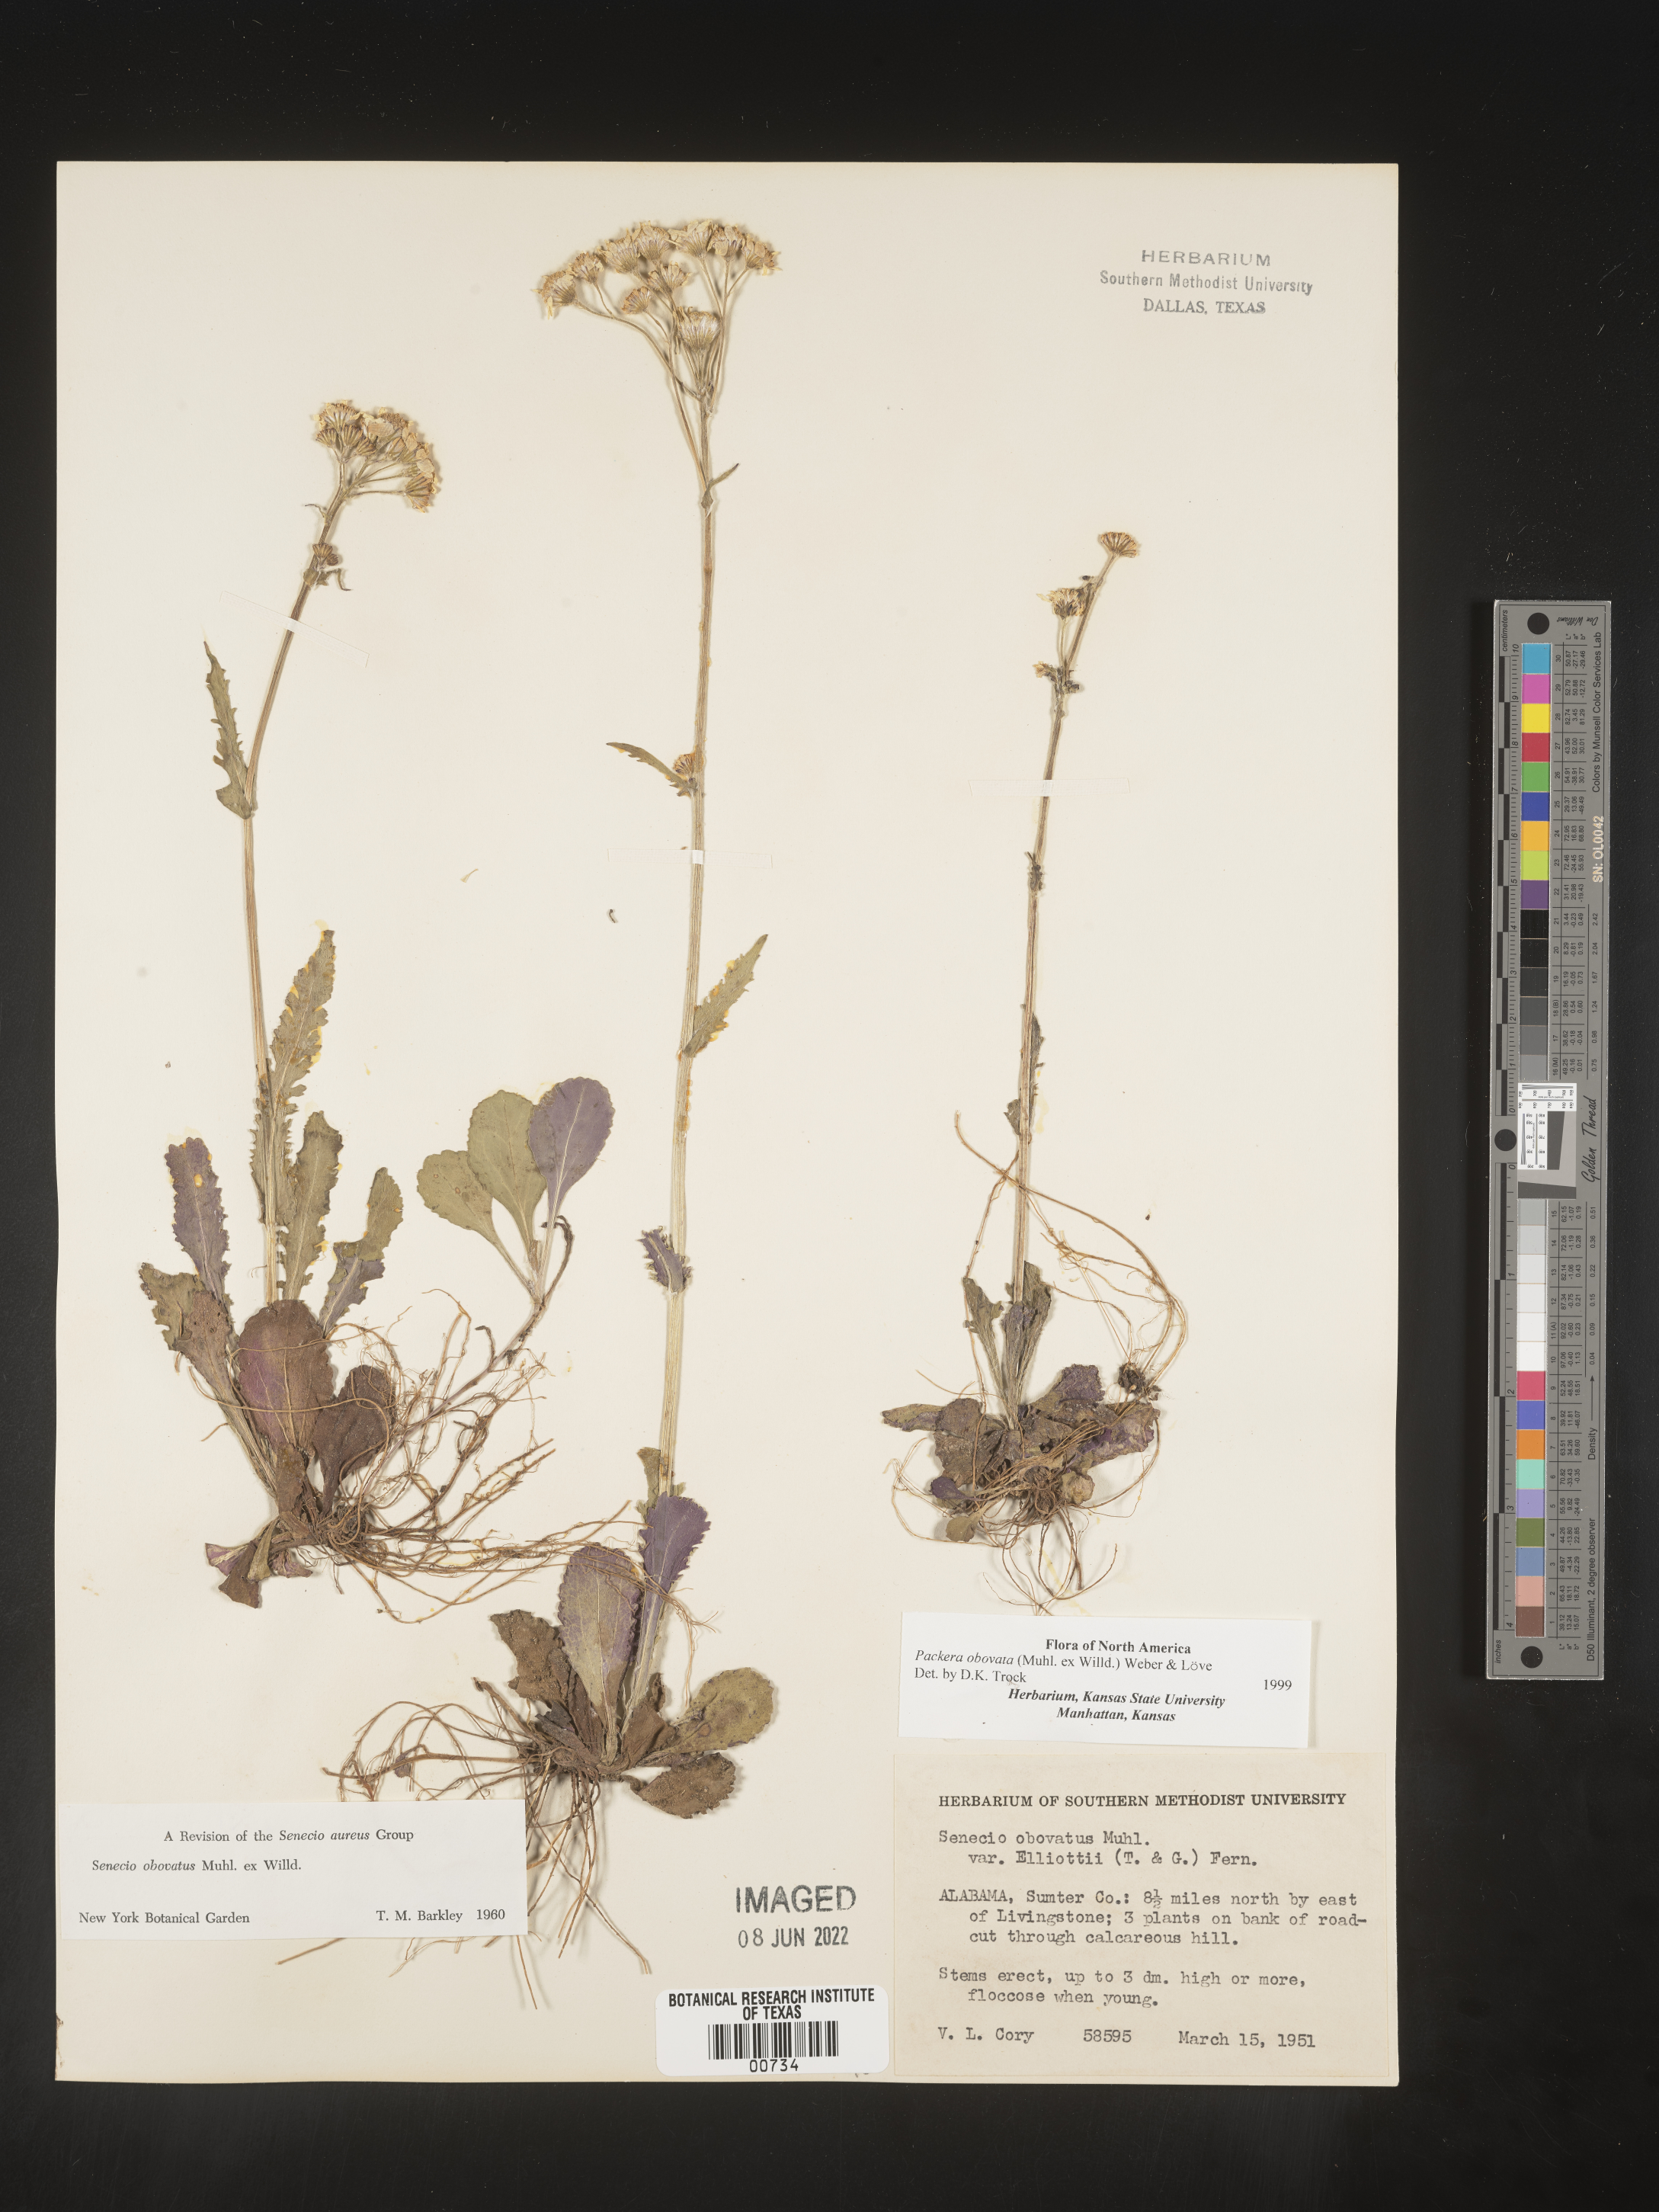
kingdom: Plantae
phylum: Tracheophyta
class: Magnoliopsida
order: Asterales
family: Asteraceae
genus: Packera
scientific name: Packera obovata
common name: Round-leaf ragwort
